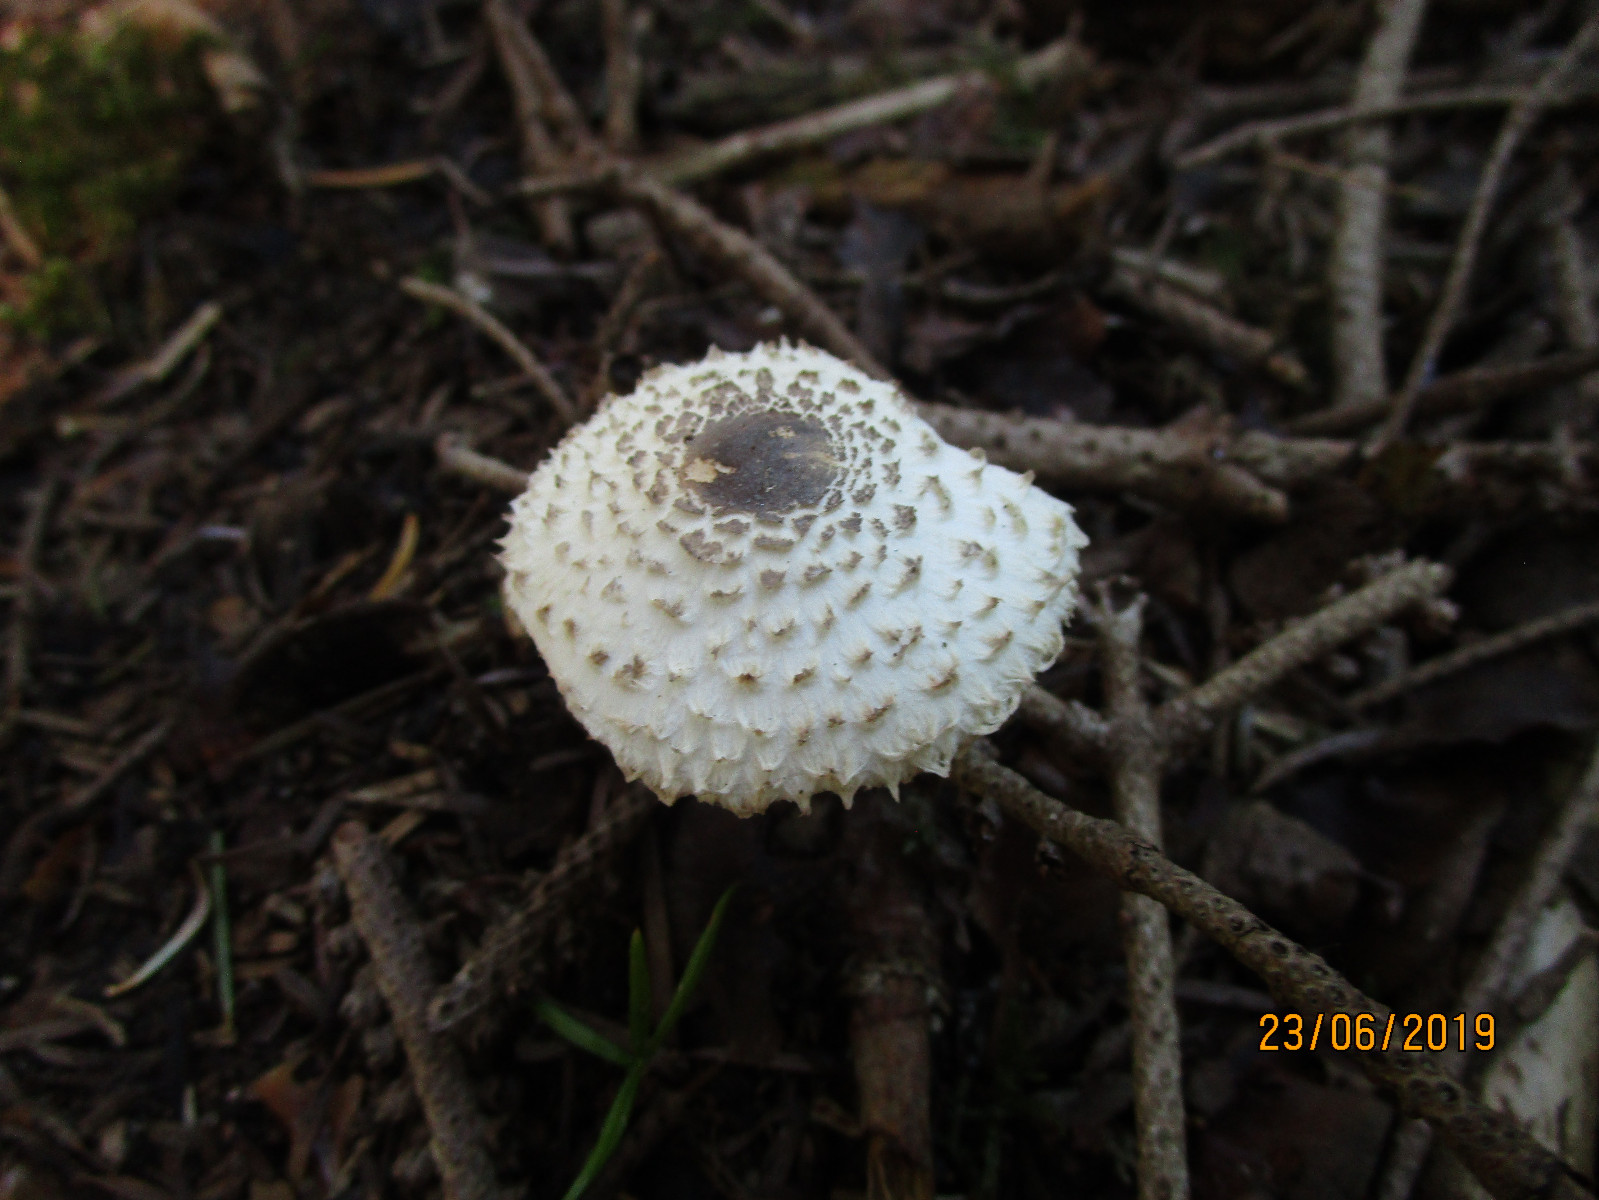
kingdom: Fungi
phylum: Basidiomycota
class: Agaricomycetes
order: Agaricales
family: Agaricaceae
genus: Leucoagaricus
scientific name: Leucoagaricus nympharum
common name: gran-silkehat
